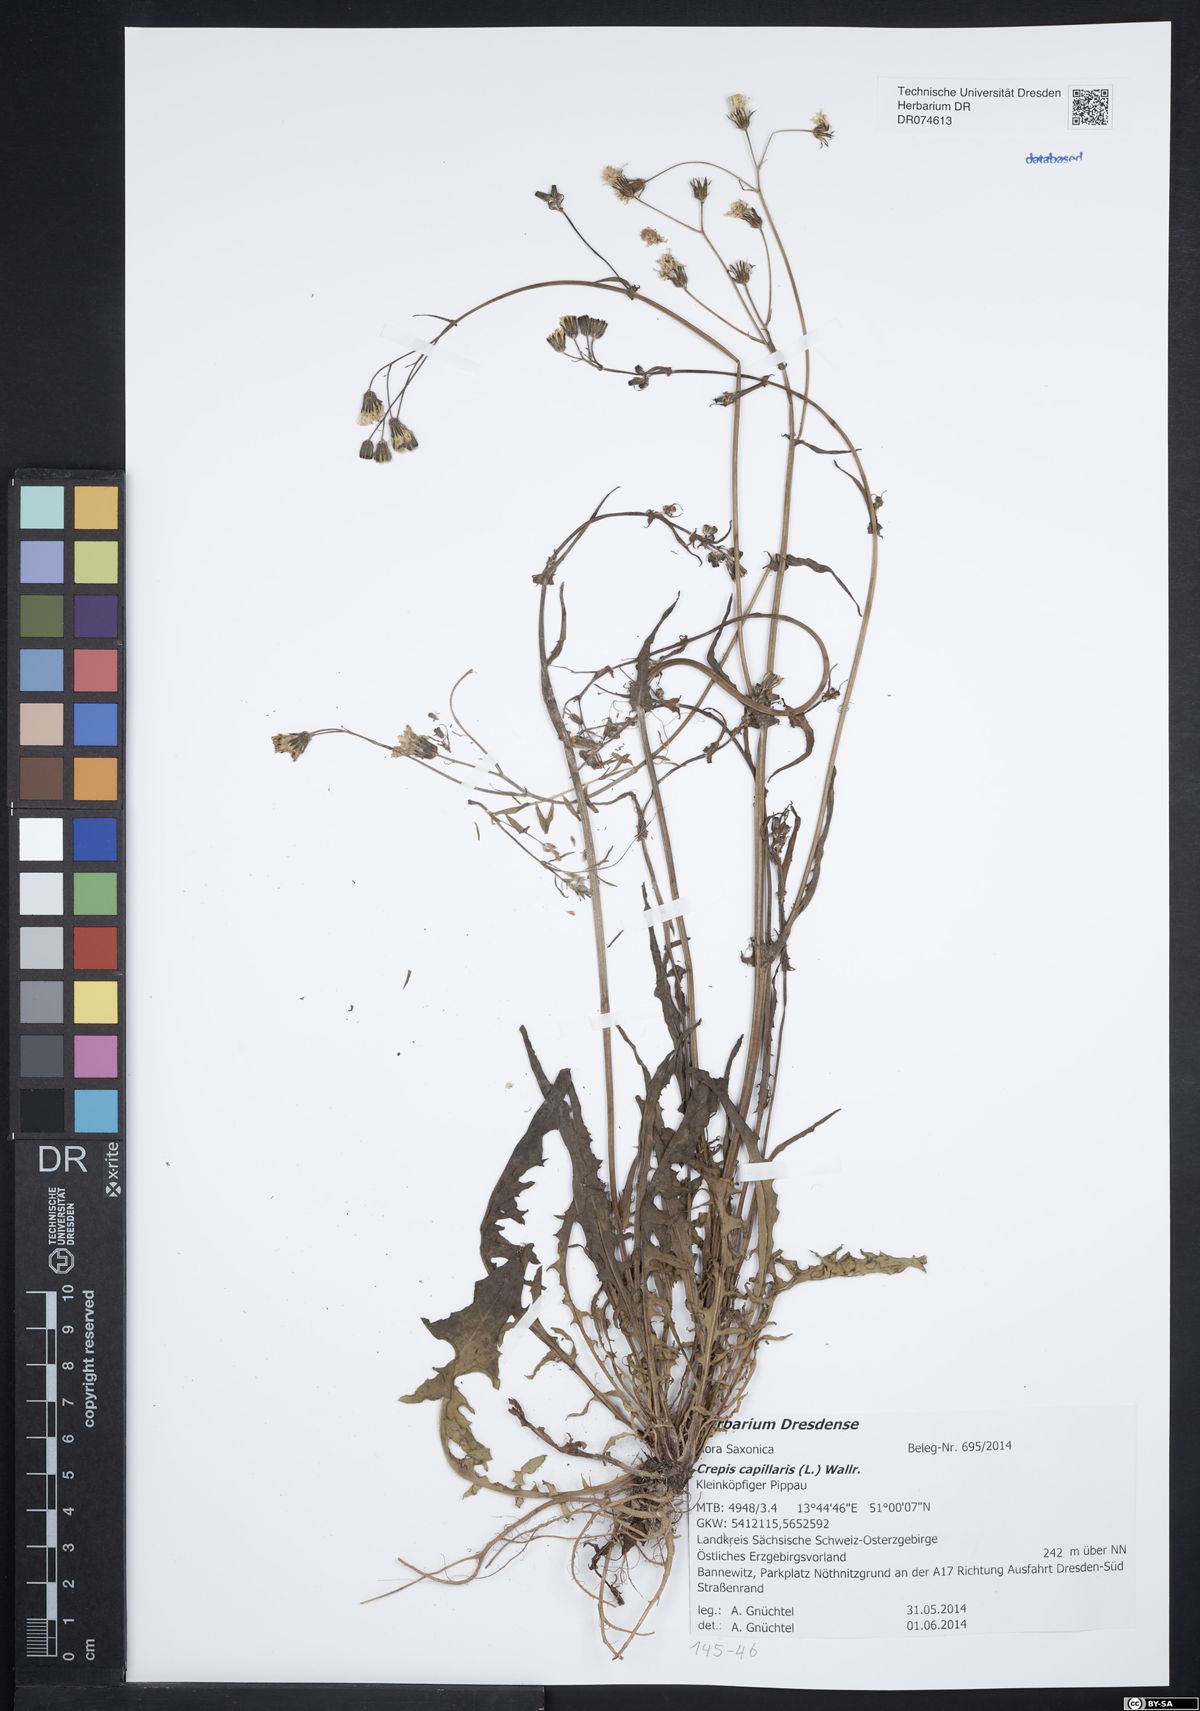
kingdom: Plantae
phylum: Tracheophyta
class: Magnoliopsida
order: Asterales
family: Asteraceae
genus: Crepis
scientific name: Crepis capillaris
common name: Smooth hawksbeard
